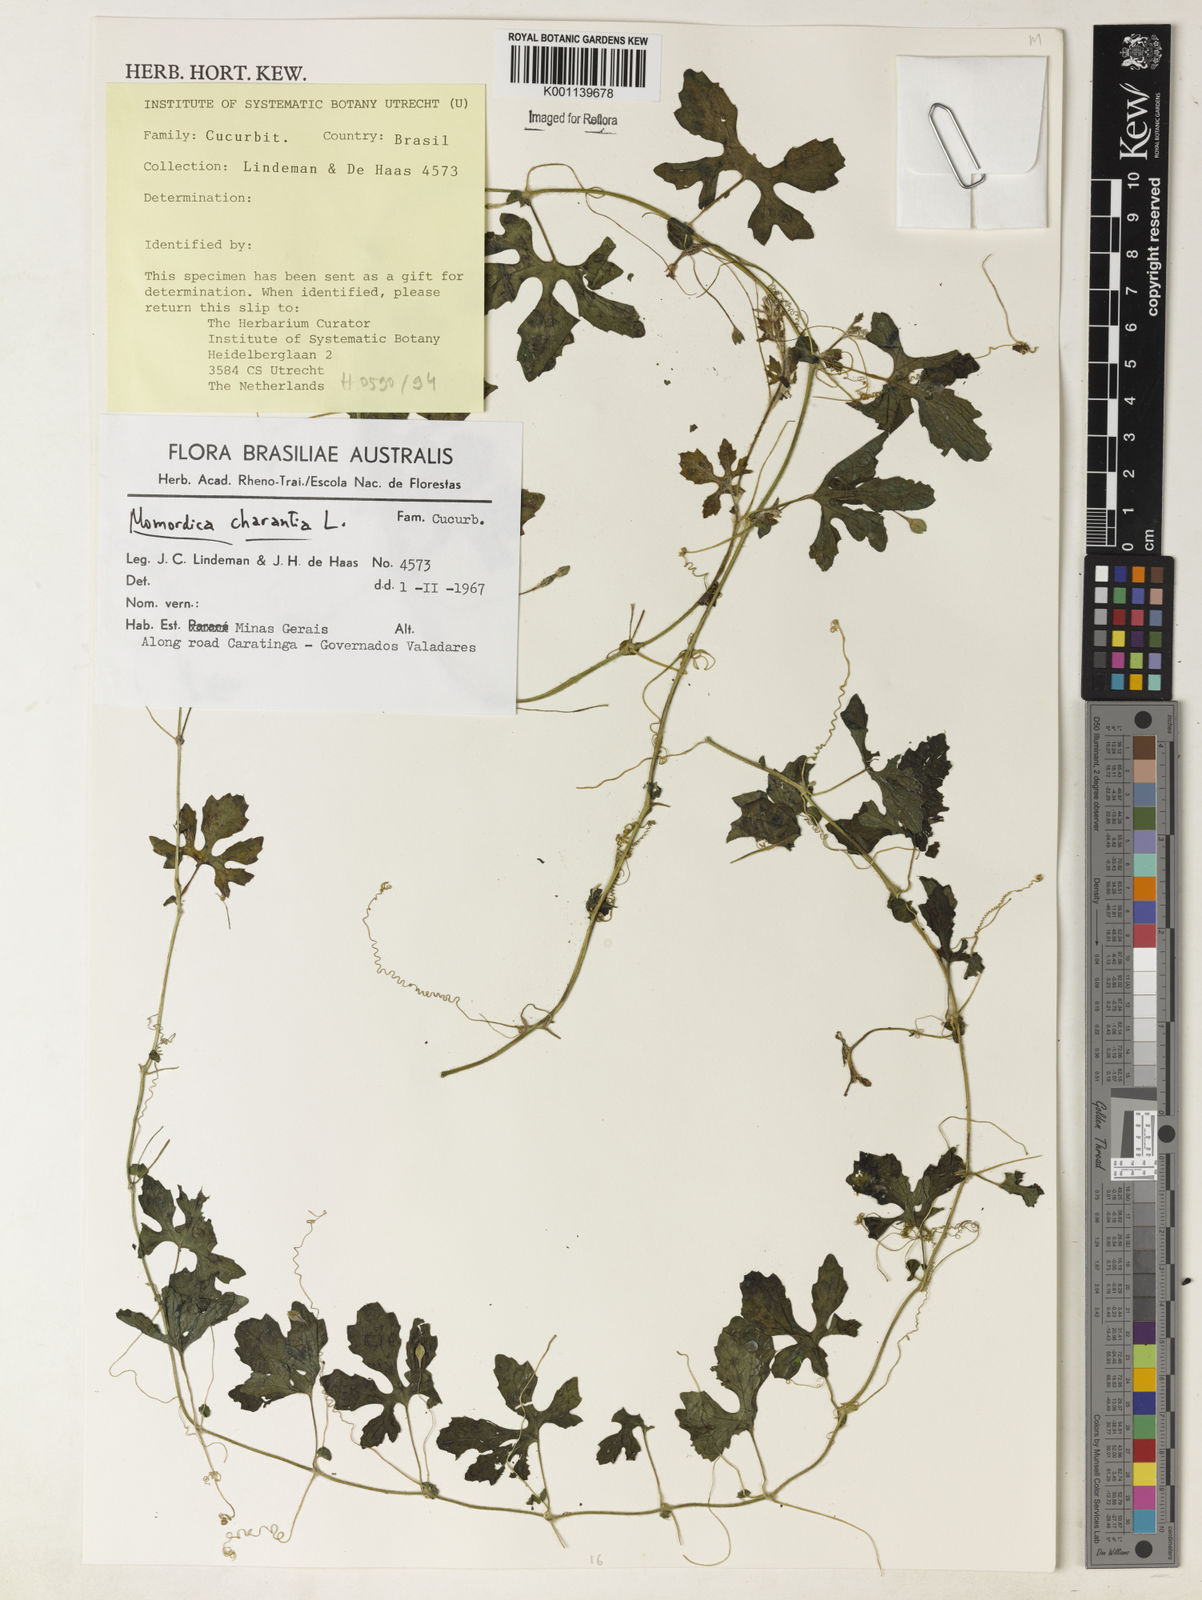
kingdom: Plantae
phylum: Tracheophyta
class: Magnoliopsida
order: Cucurbitales
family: Cucurbitaceae
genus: Momordica
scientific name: Momordica charantia
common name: Balsampear
